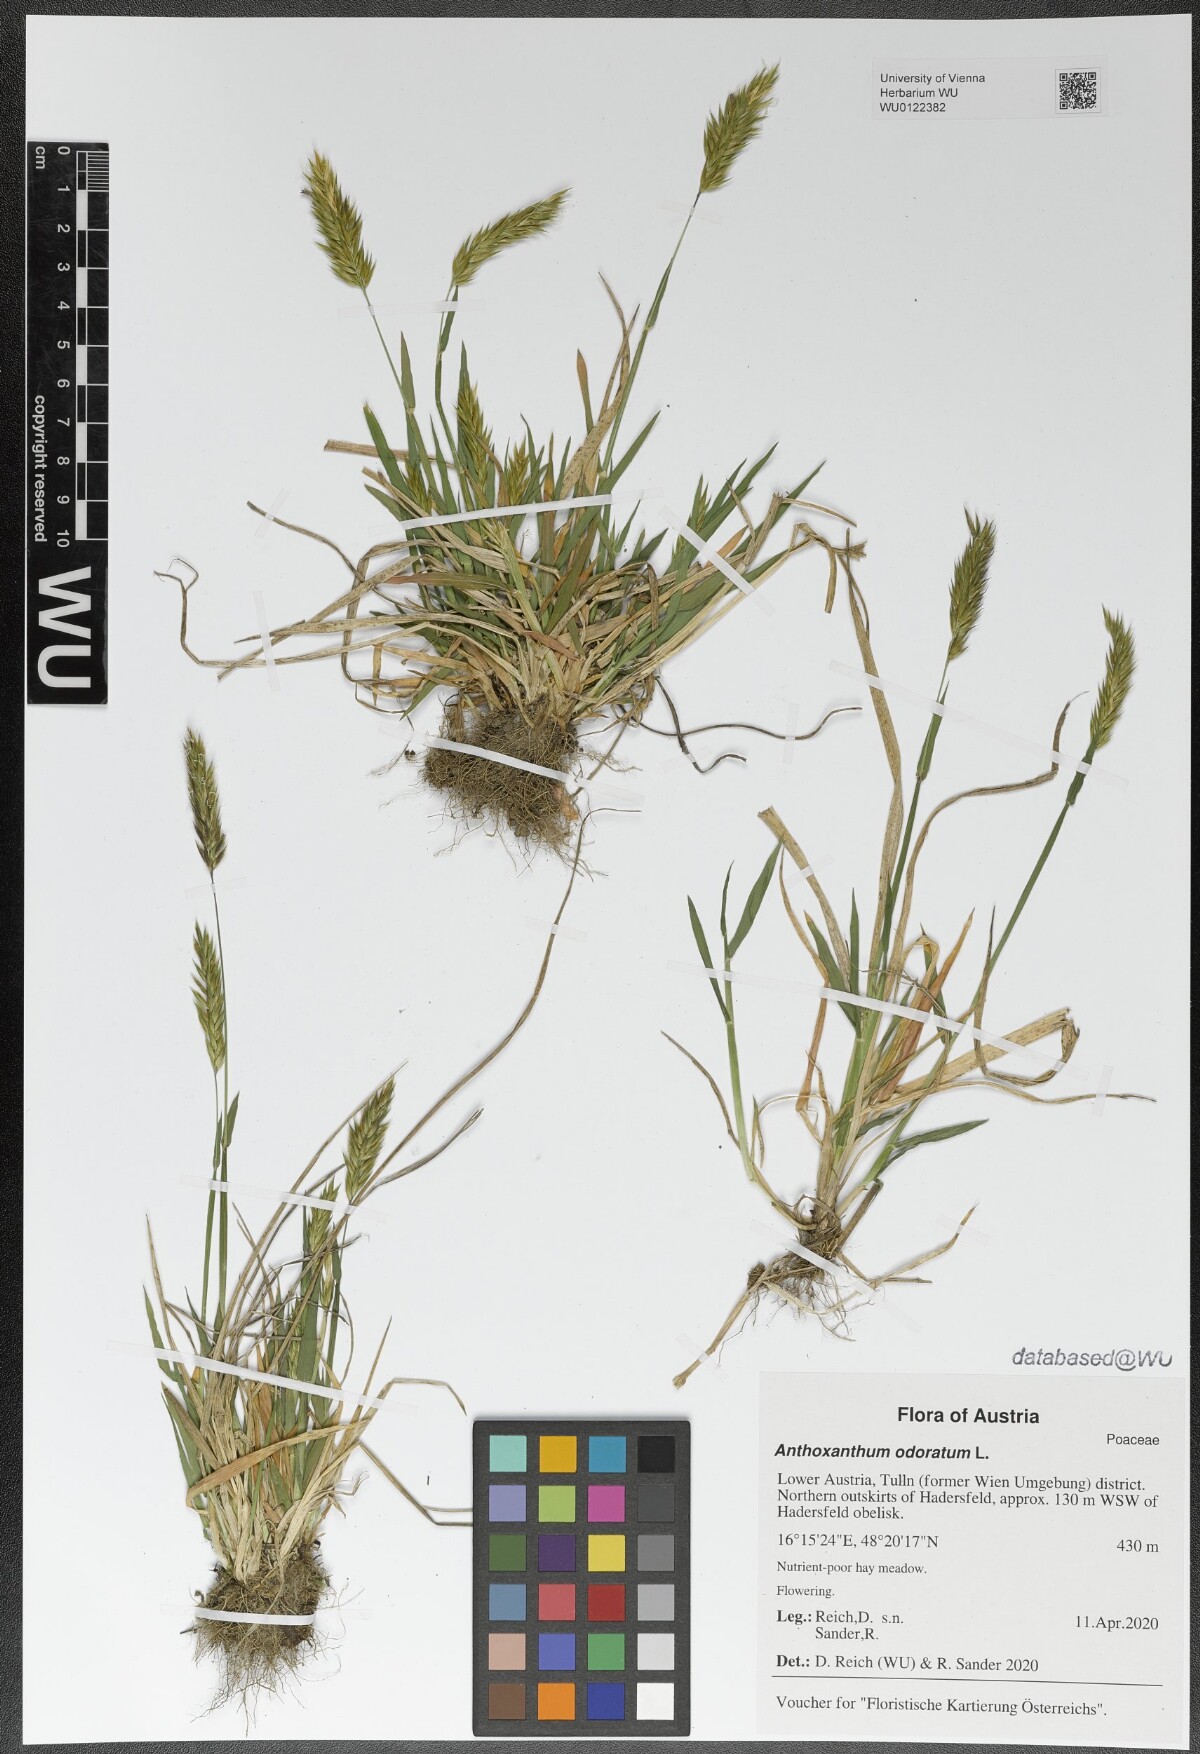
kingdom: Plantae
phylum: Tracheophyta
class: Liliopsida
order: Poales
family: Poaceae
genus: Anthoxanthum
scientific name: Anthoxanthum odoratum
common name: Sweet vernalgrass
